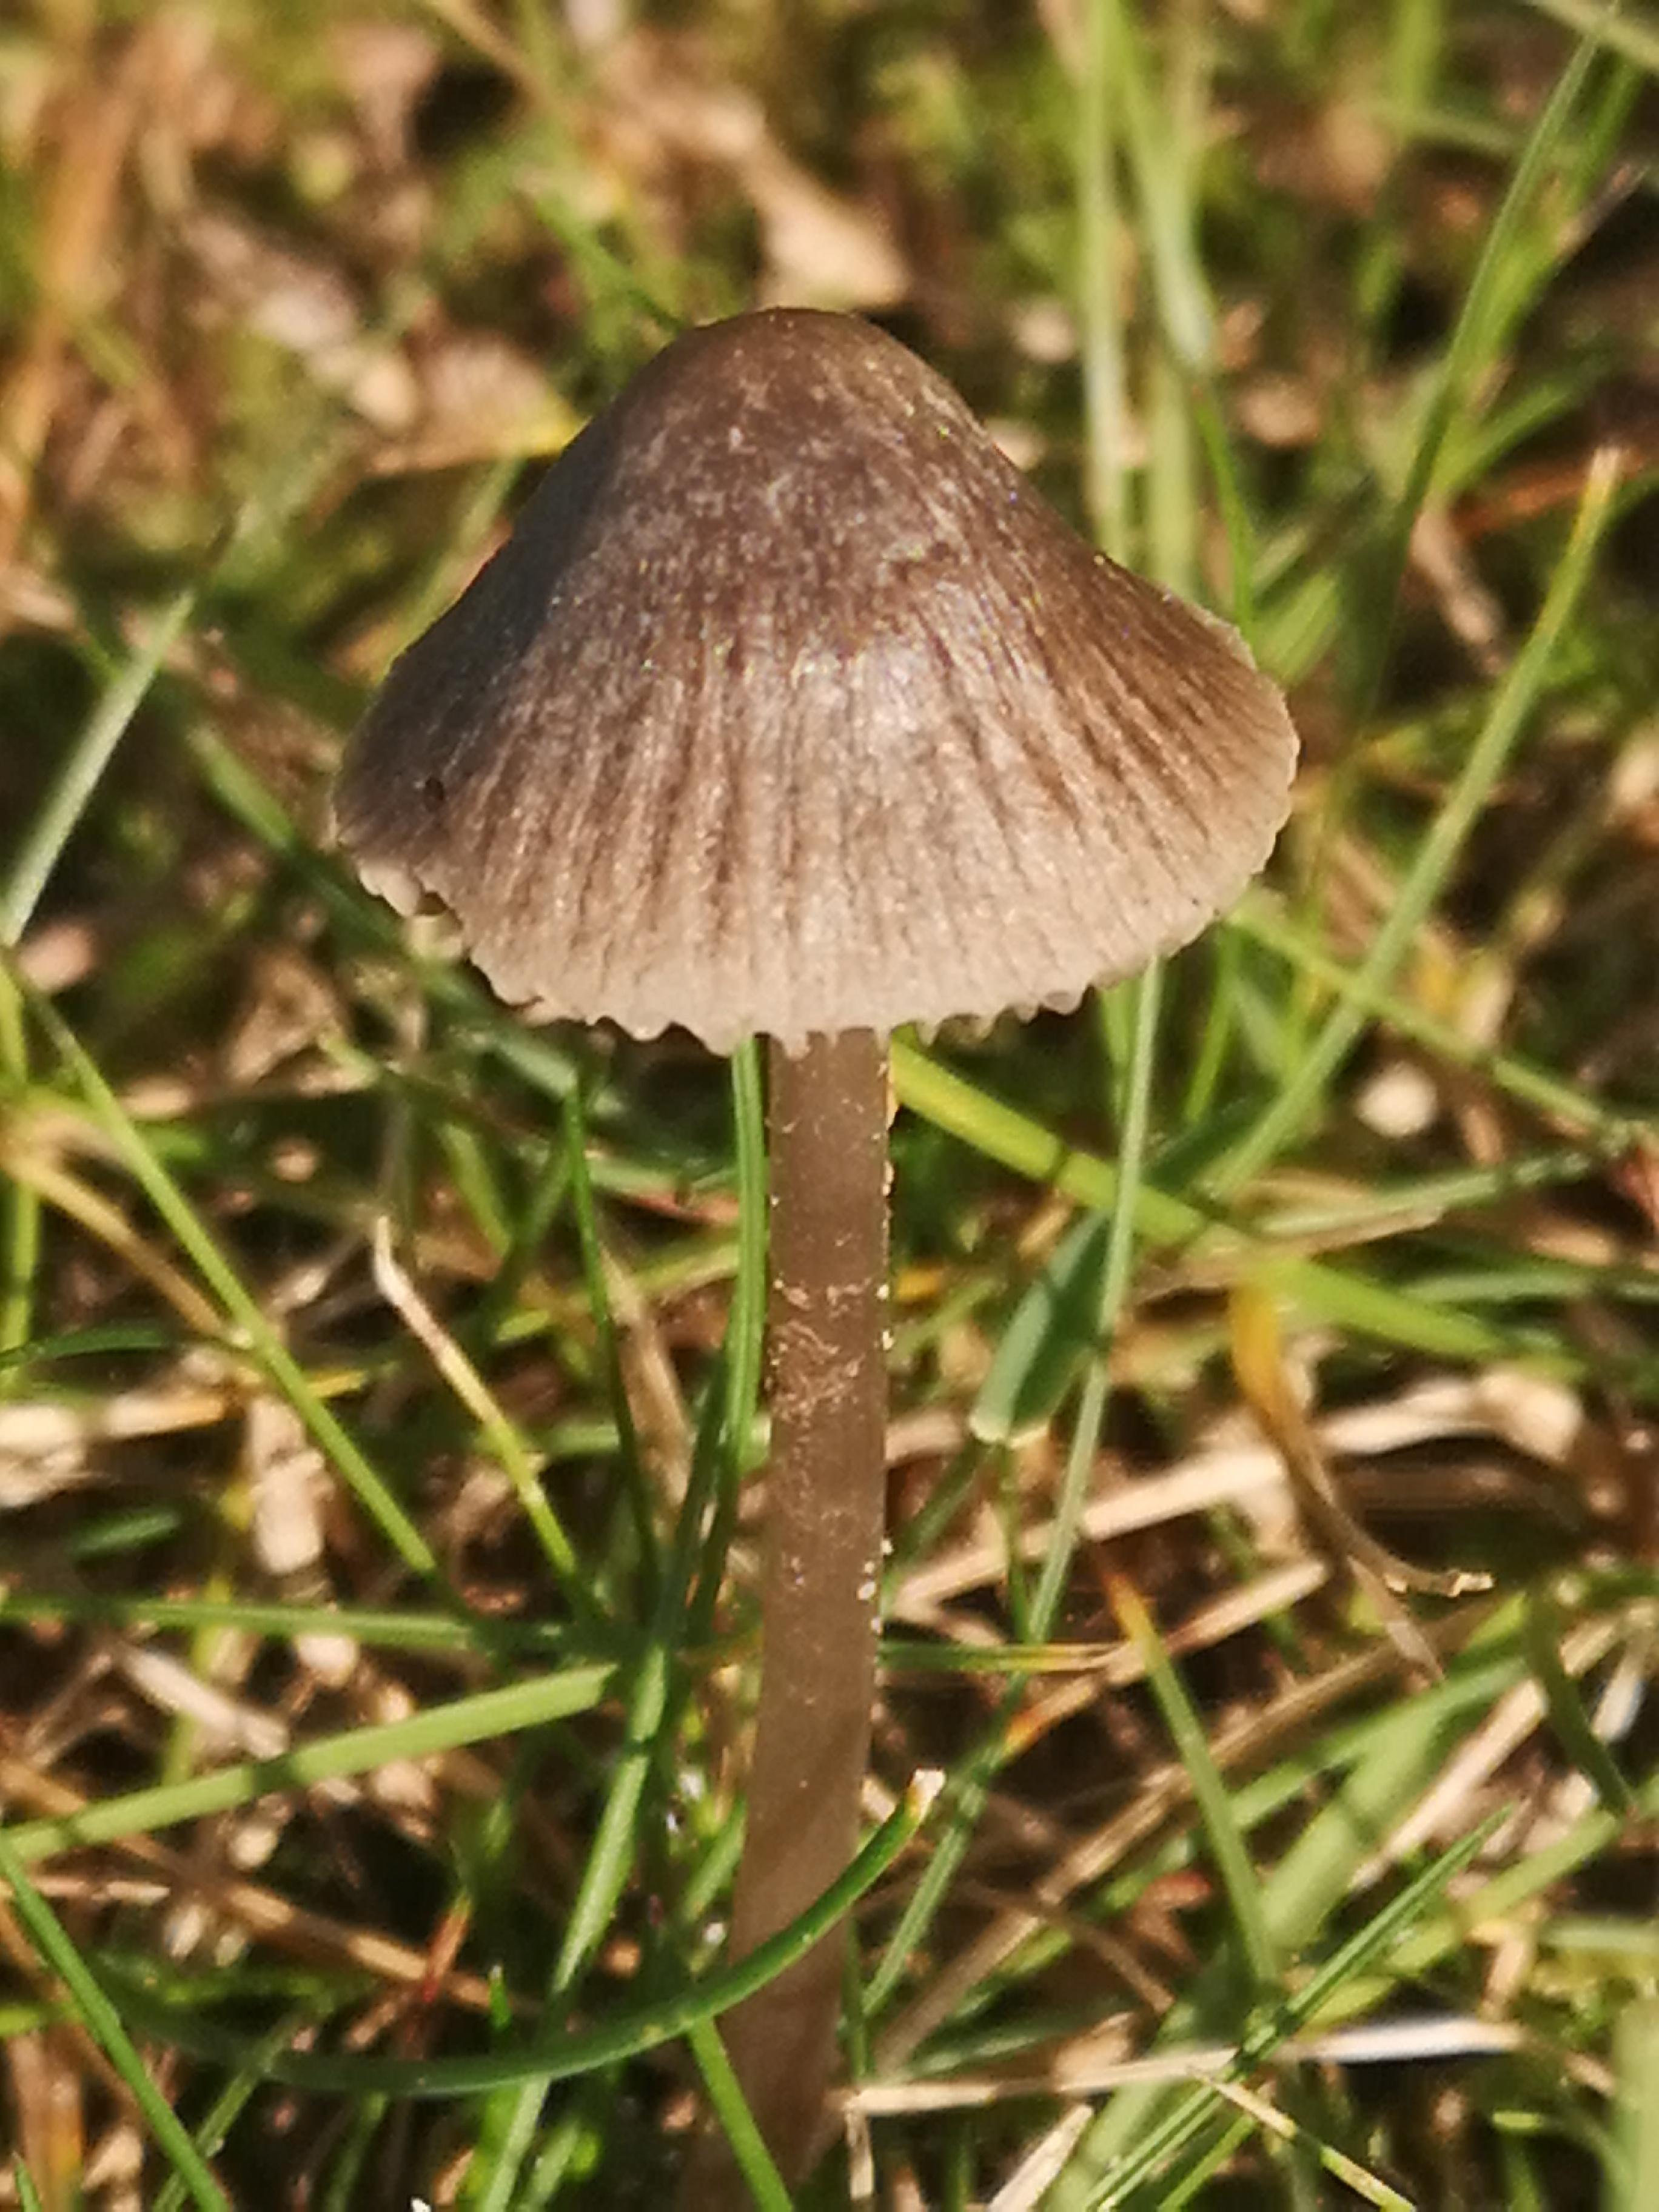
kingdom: Fungi
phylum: Basidiomycota
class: Agaricomycetes
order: Agaricales
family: Mycenaceae
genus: Mycena
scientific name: Mycena aetites
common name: plæne-huesvamp
